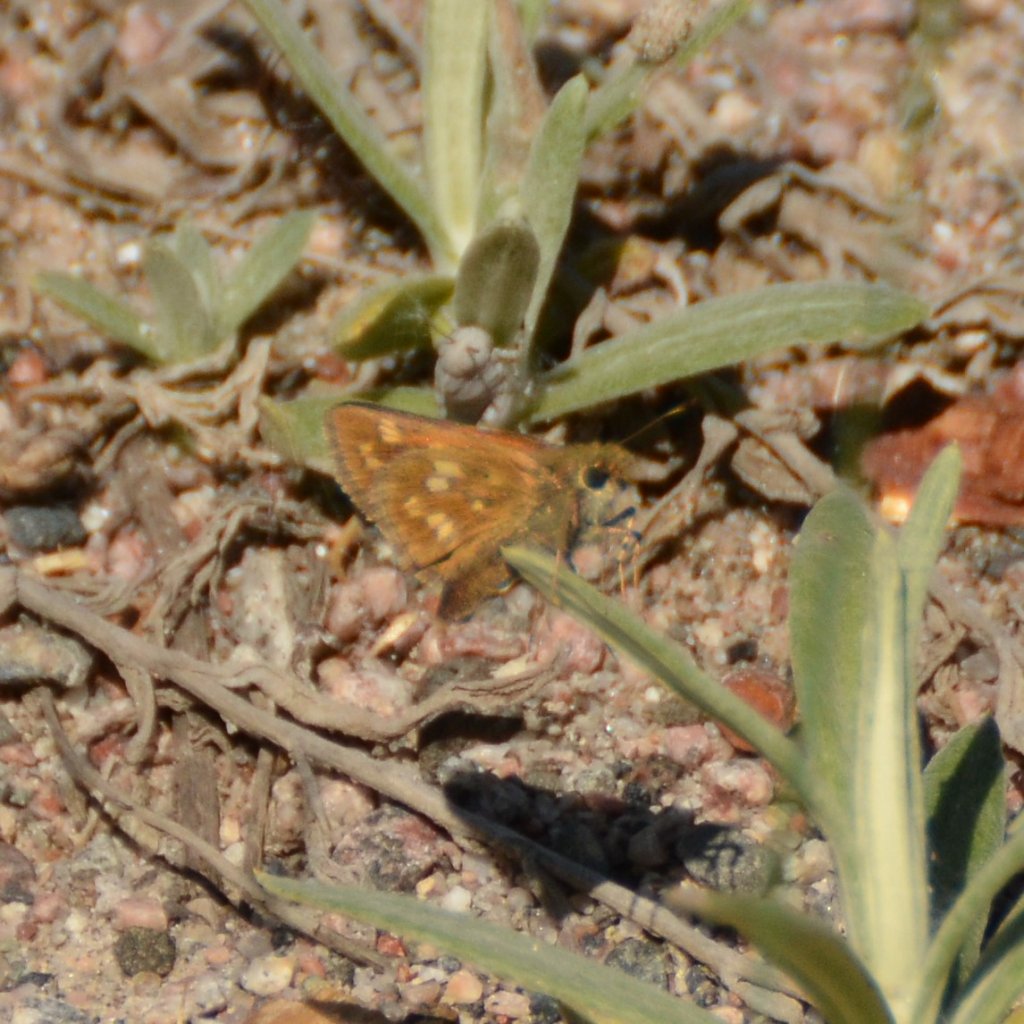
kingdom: Animalia
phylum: Arthropoda
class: Insecta
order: Lepidoptera
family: Hesperiidae
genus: Hesperia
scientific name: Hesperia sassacus
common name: Sassacus Skipper
